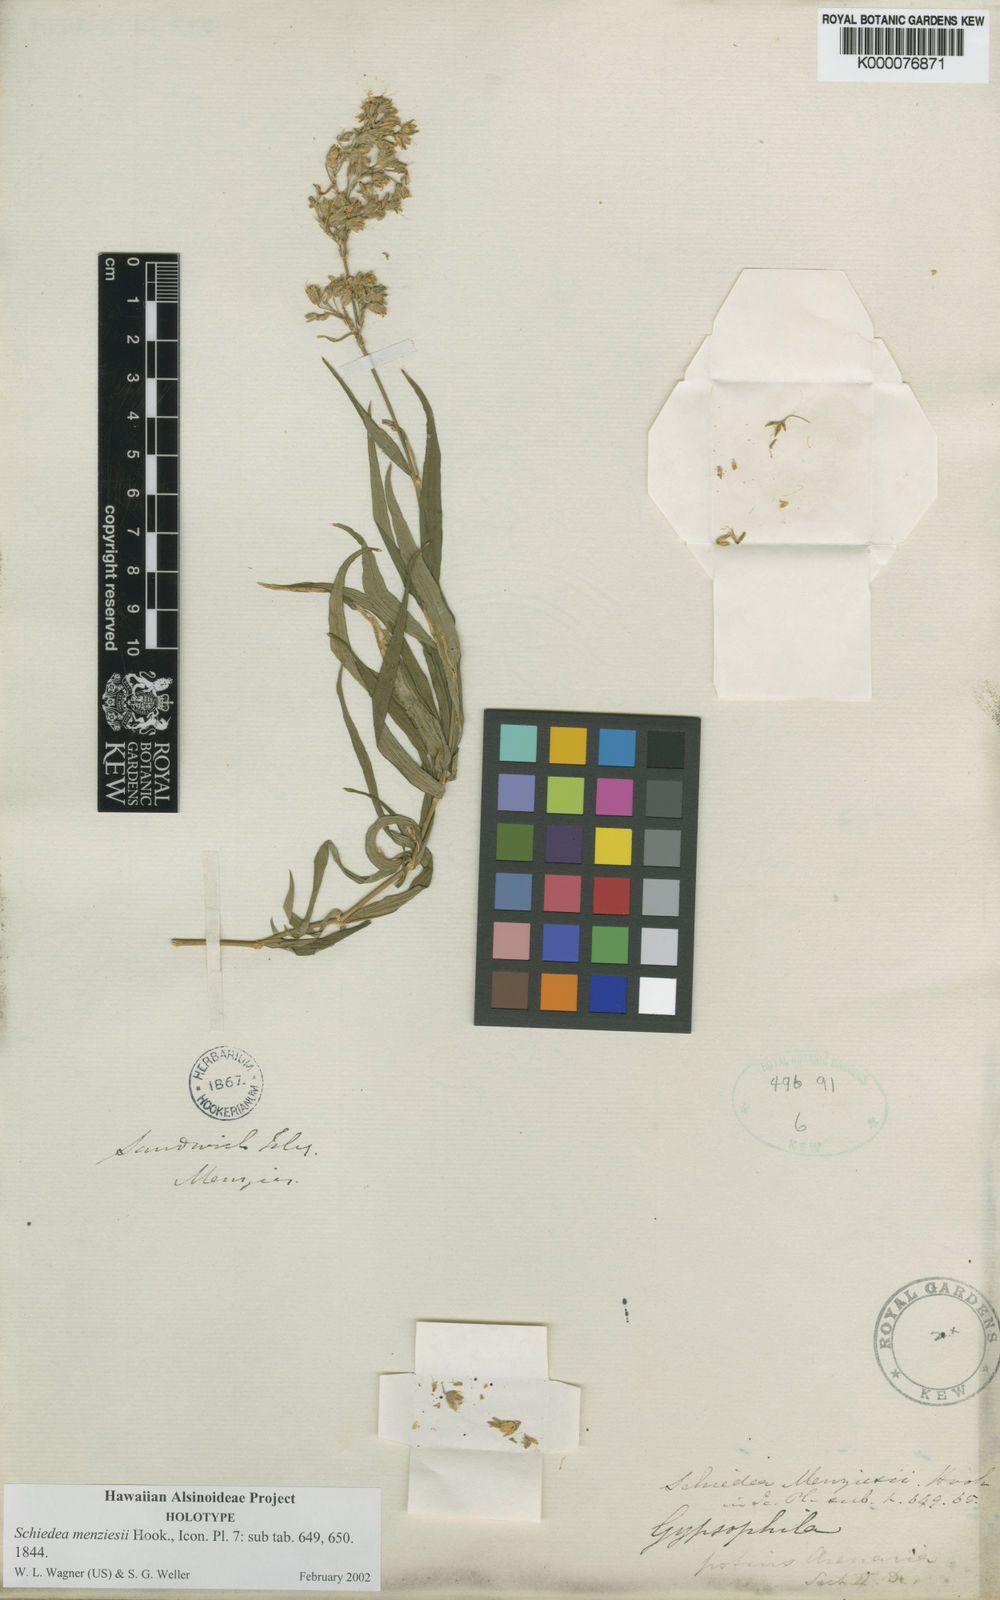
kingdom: Plantae
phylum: Tracheophyta
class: Magnoliopsida
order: Caryophyllales
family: Caryophyllaceae
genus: Schiedea
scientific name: Schiedea menziesii
